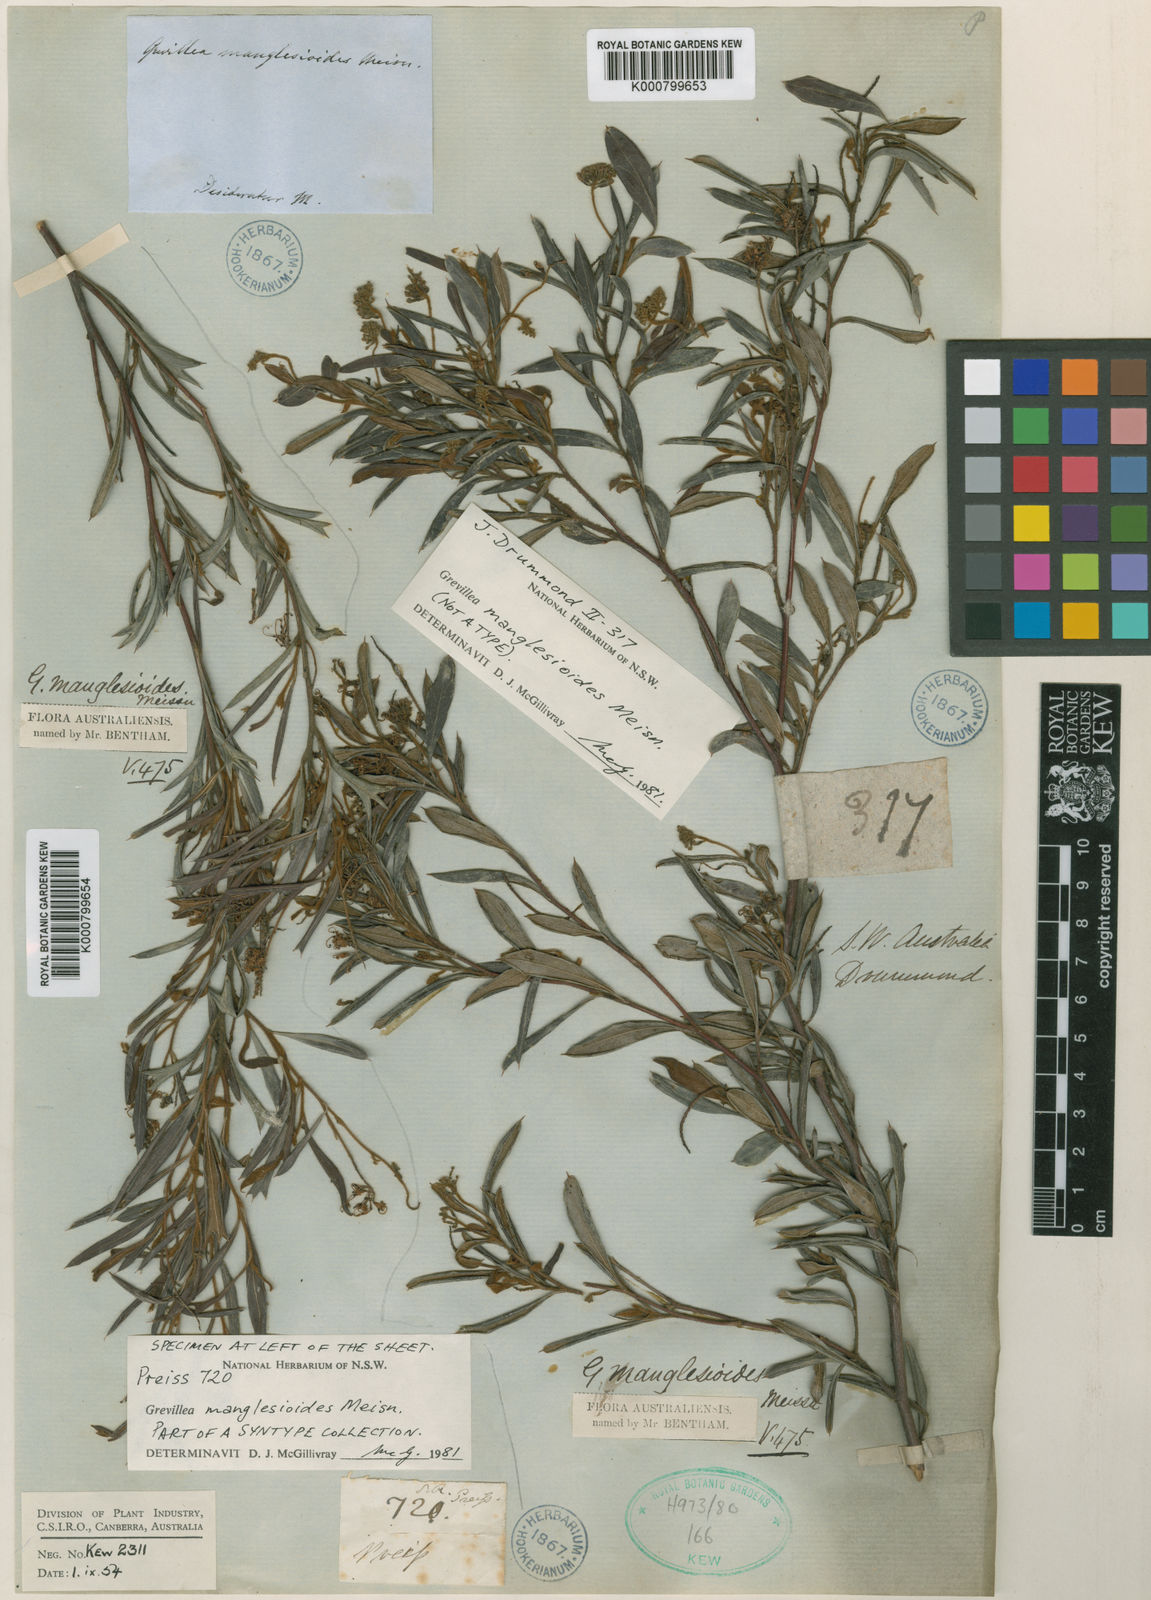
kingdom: Plantae
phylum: Tracheophyta
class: Magnoliopsida
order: Proteales
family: Proteaceae
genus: Grevillea
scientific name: Grevillea manglesioides
